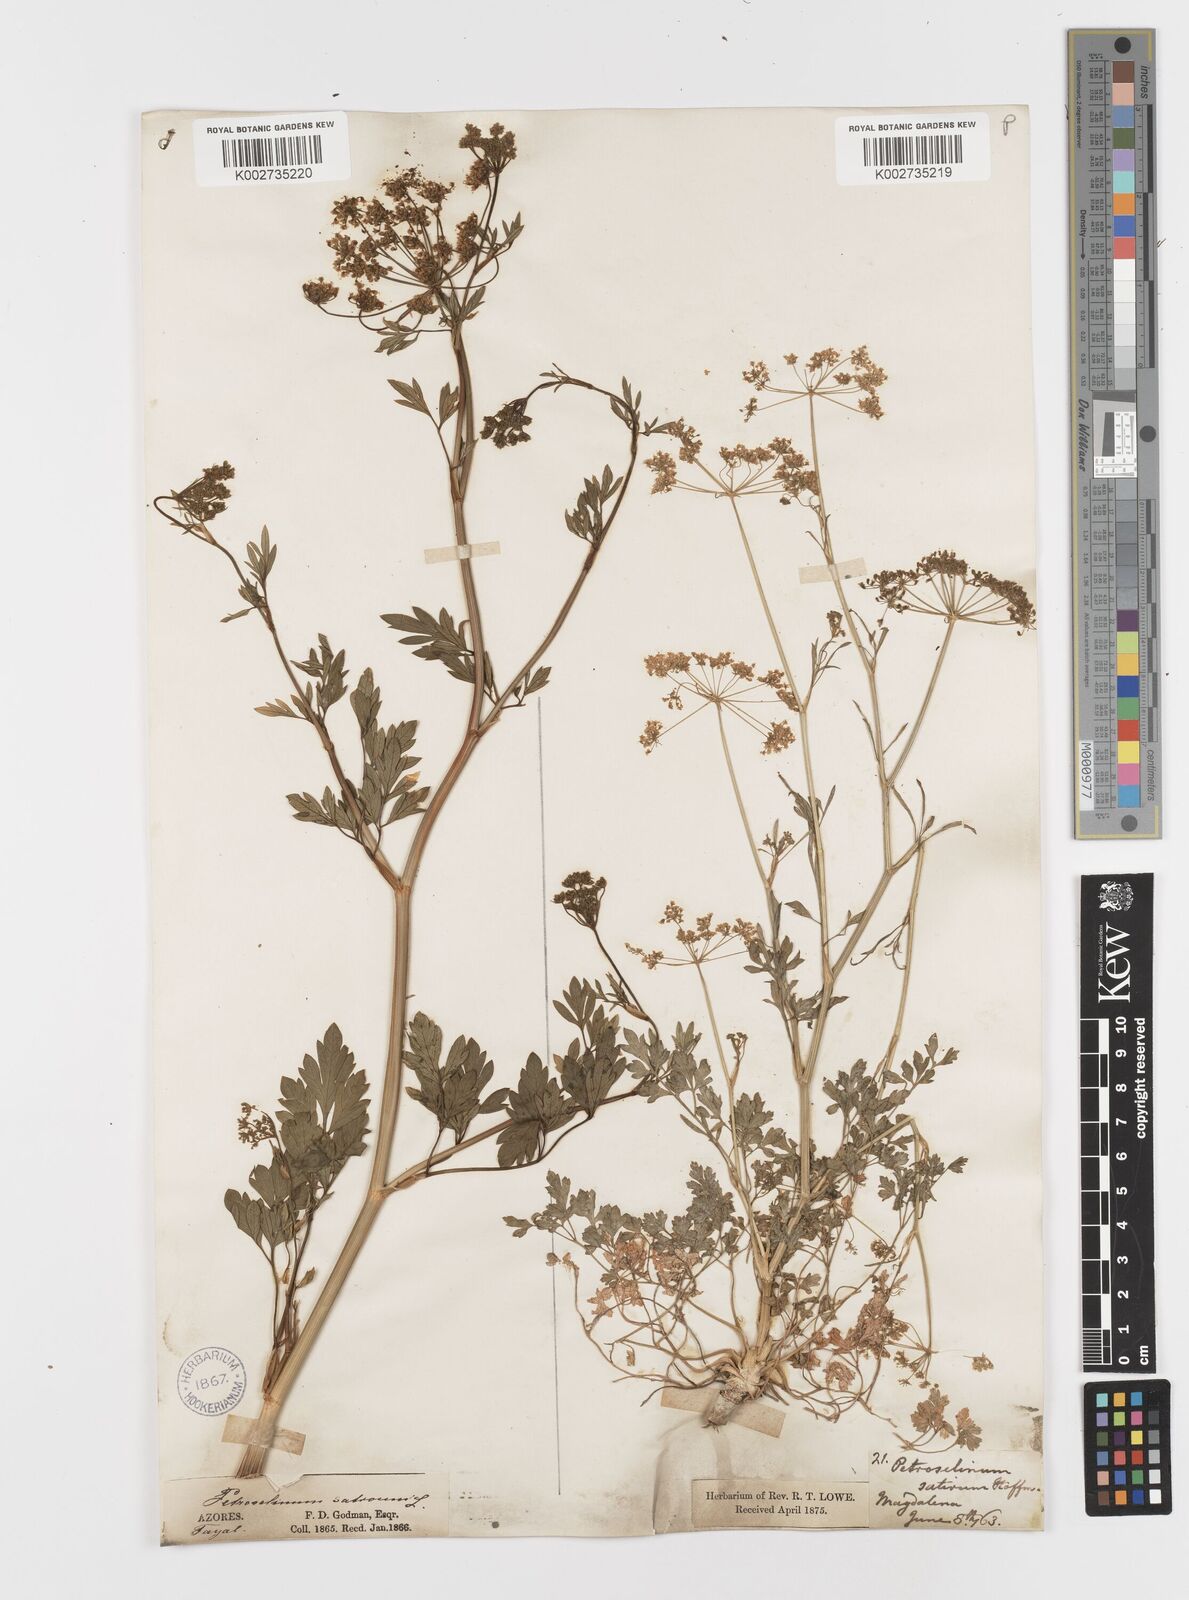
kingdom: Plantae
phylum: Tracheophyta
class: Magnoliopsida
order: Apiales
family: Apiaceae
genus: Petroselinum
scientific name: Petroselinum crispum
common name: Parsley
